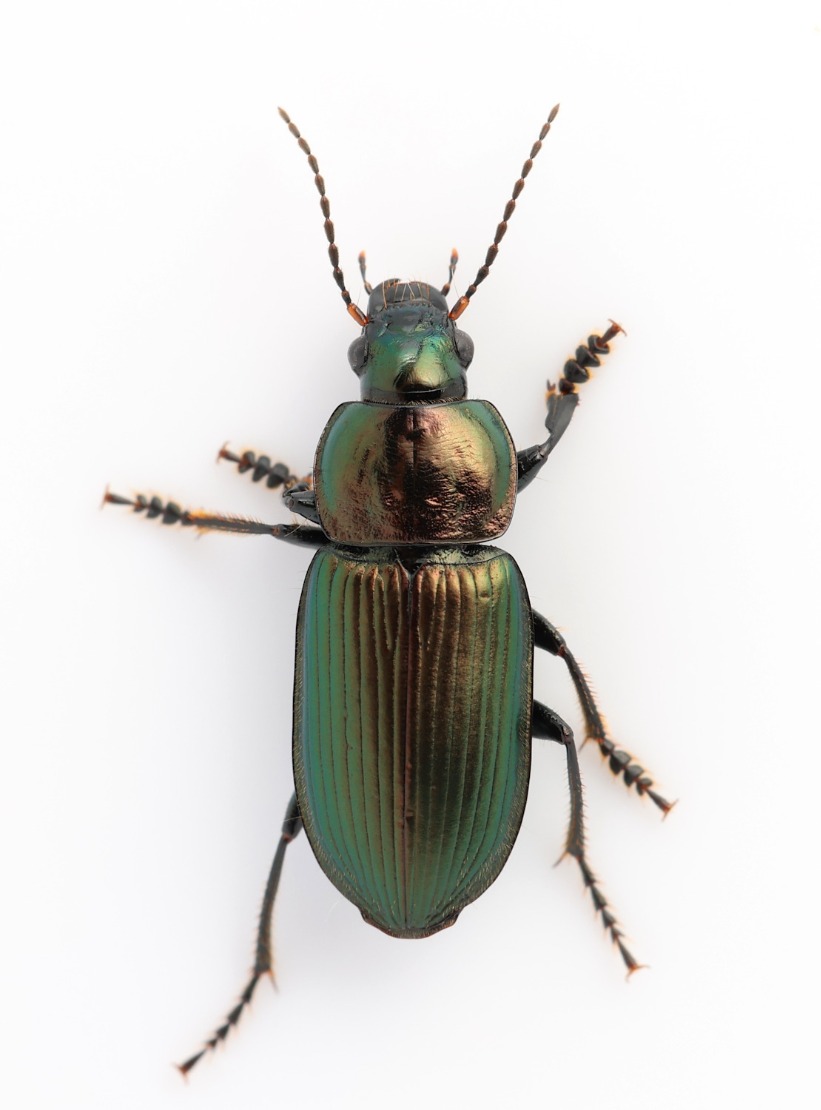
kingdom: Animalia
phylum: Arthropoda
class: Insecta
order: Coleoptera
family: Carabidae
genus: Anisodactylus
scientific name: Anisodactylus poeciloides
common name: Metalgrøn bredløber
